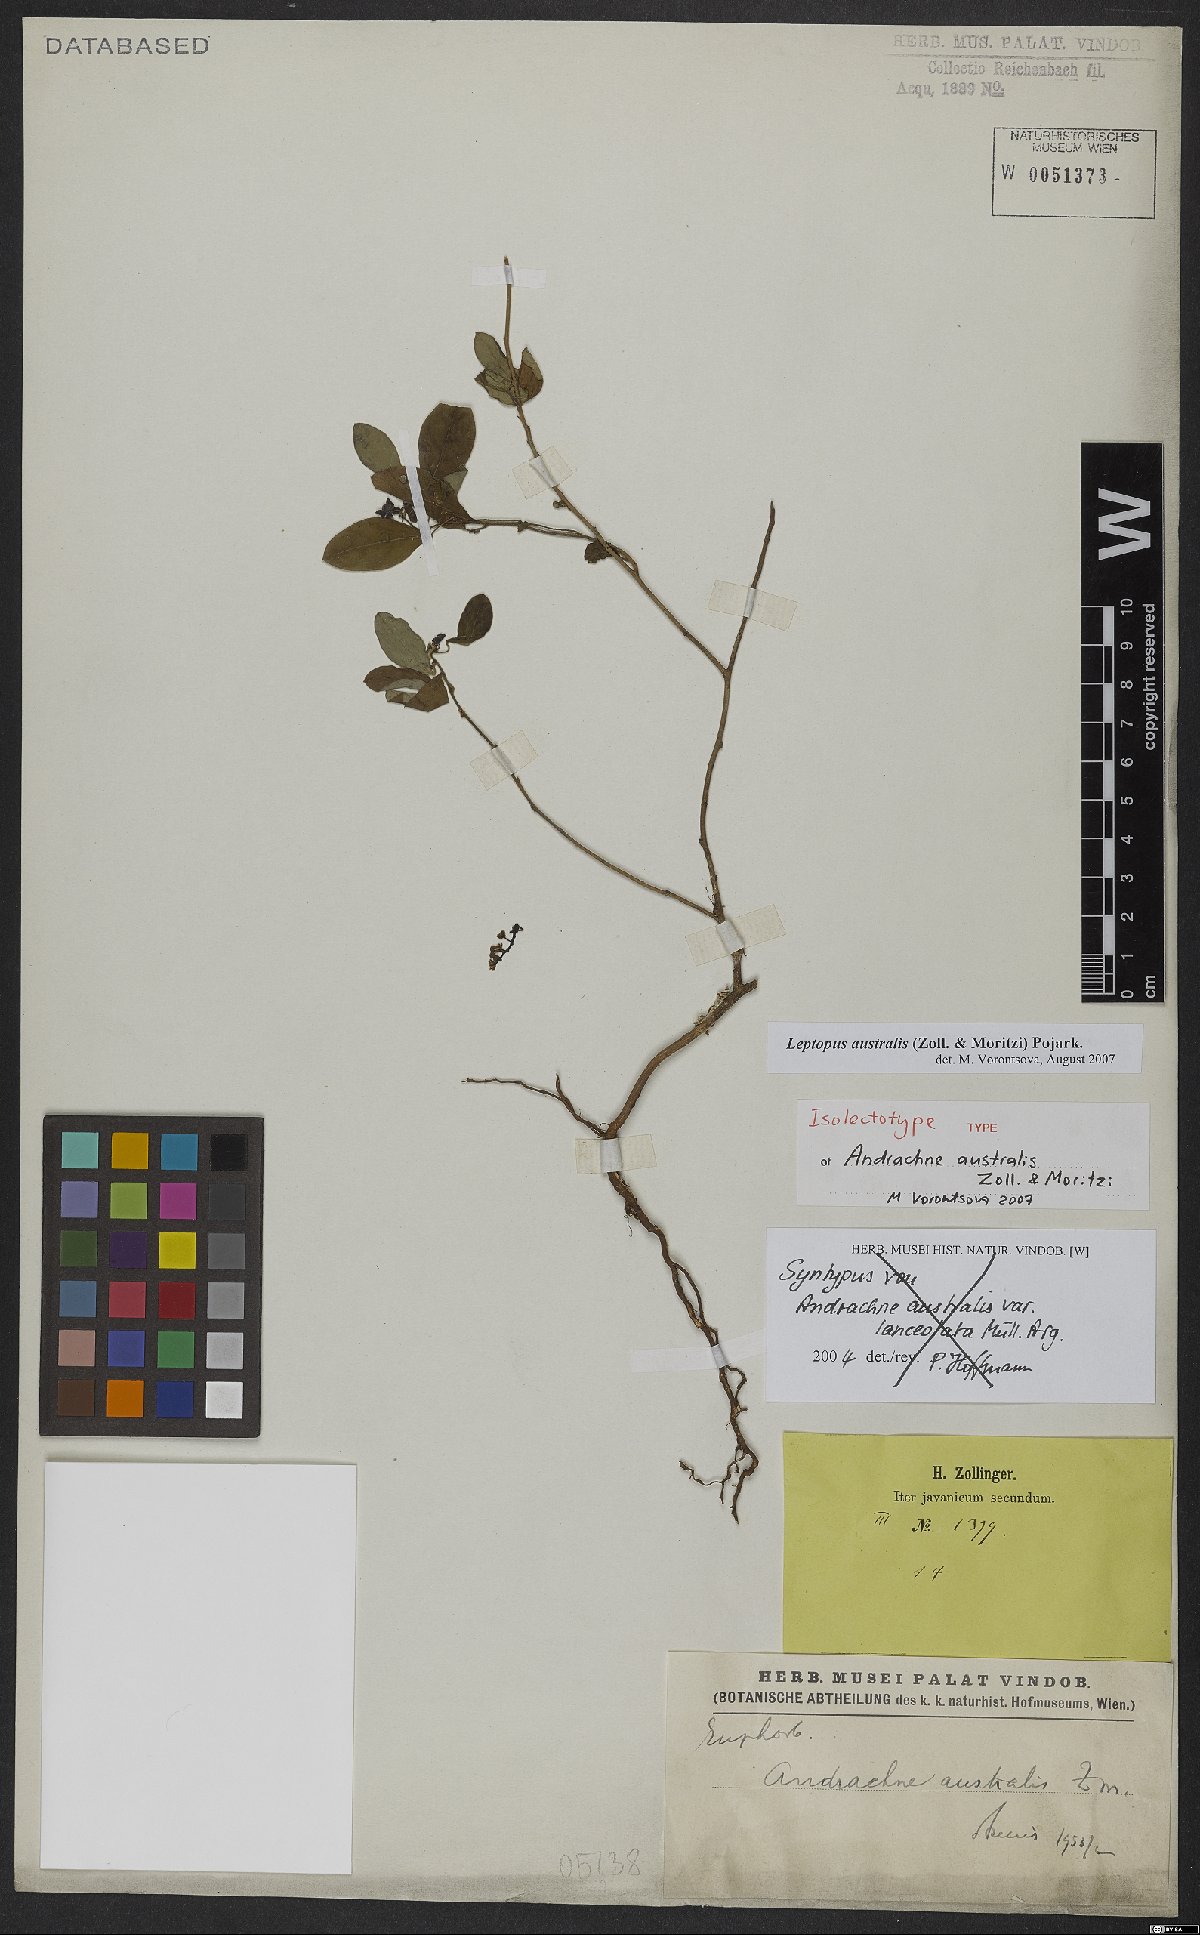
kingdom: Plantae
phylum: Tracheophyta
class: Magnoliopsida
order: Malpighiales
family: Phyllanthaceae
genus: Leptopus
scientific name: Leptopus australis
